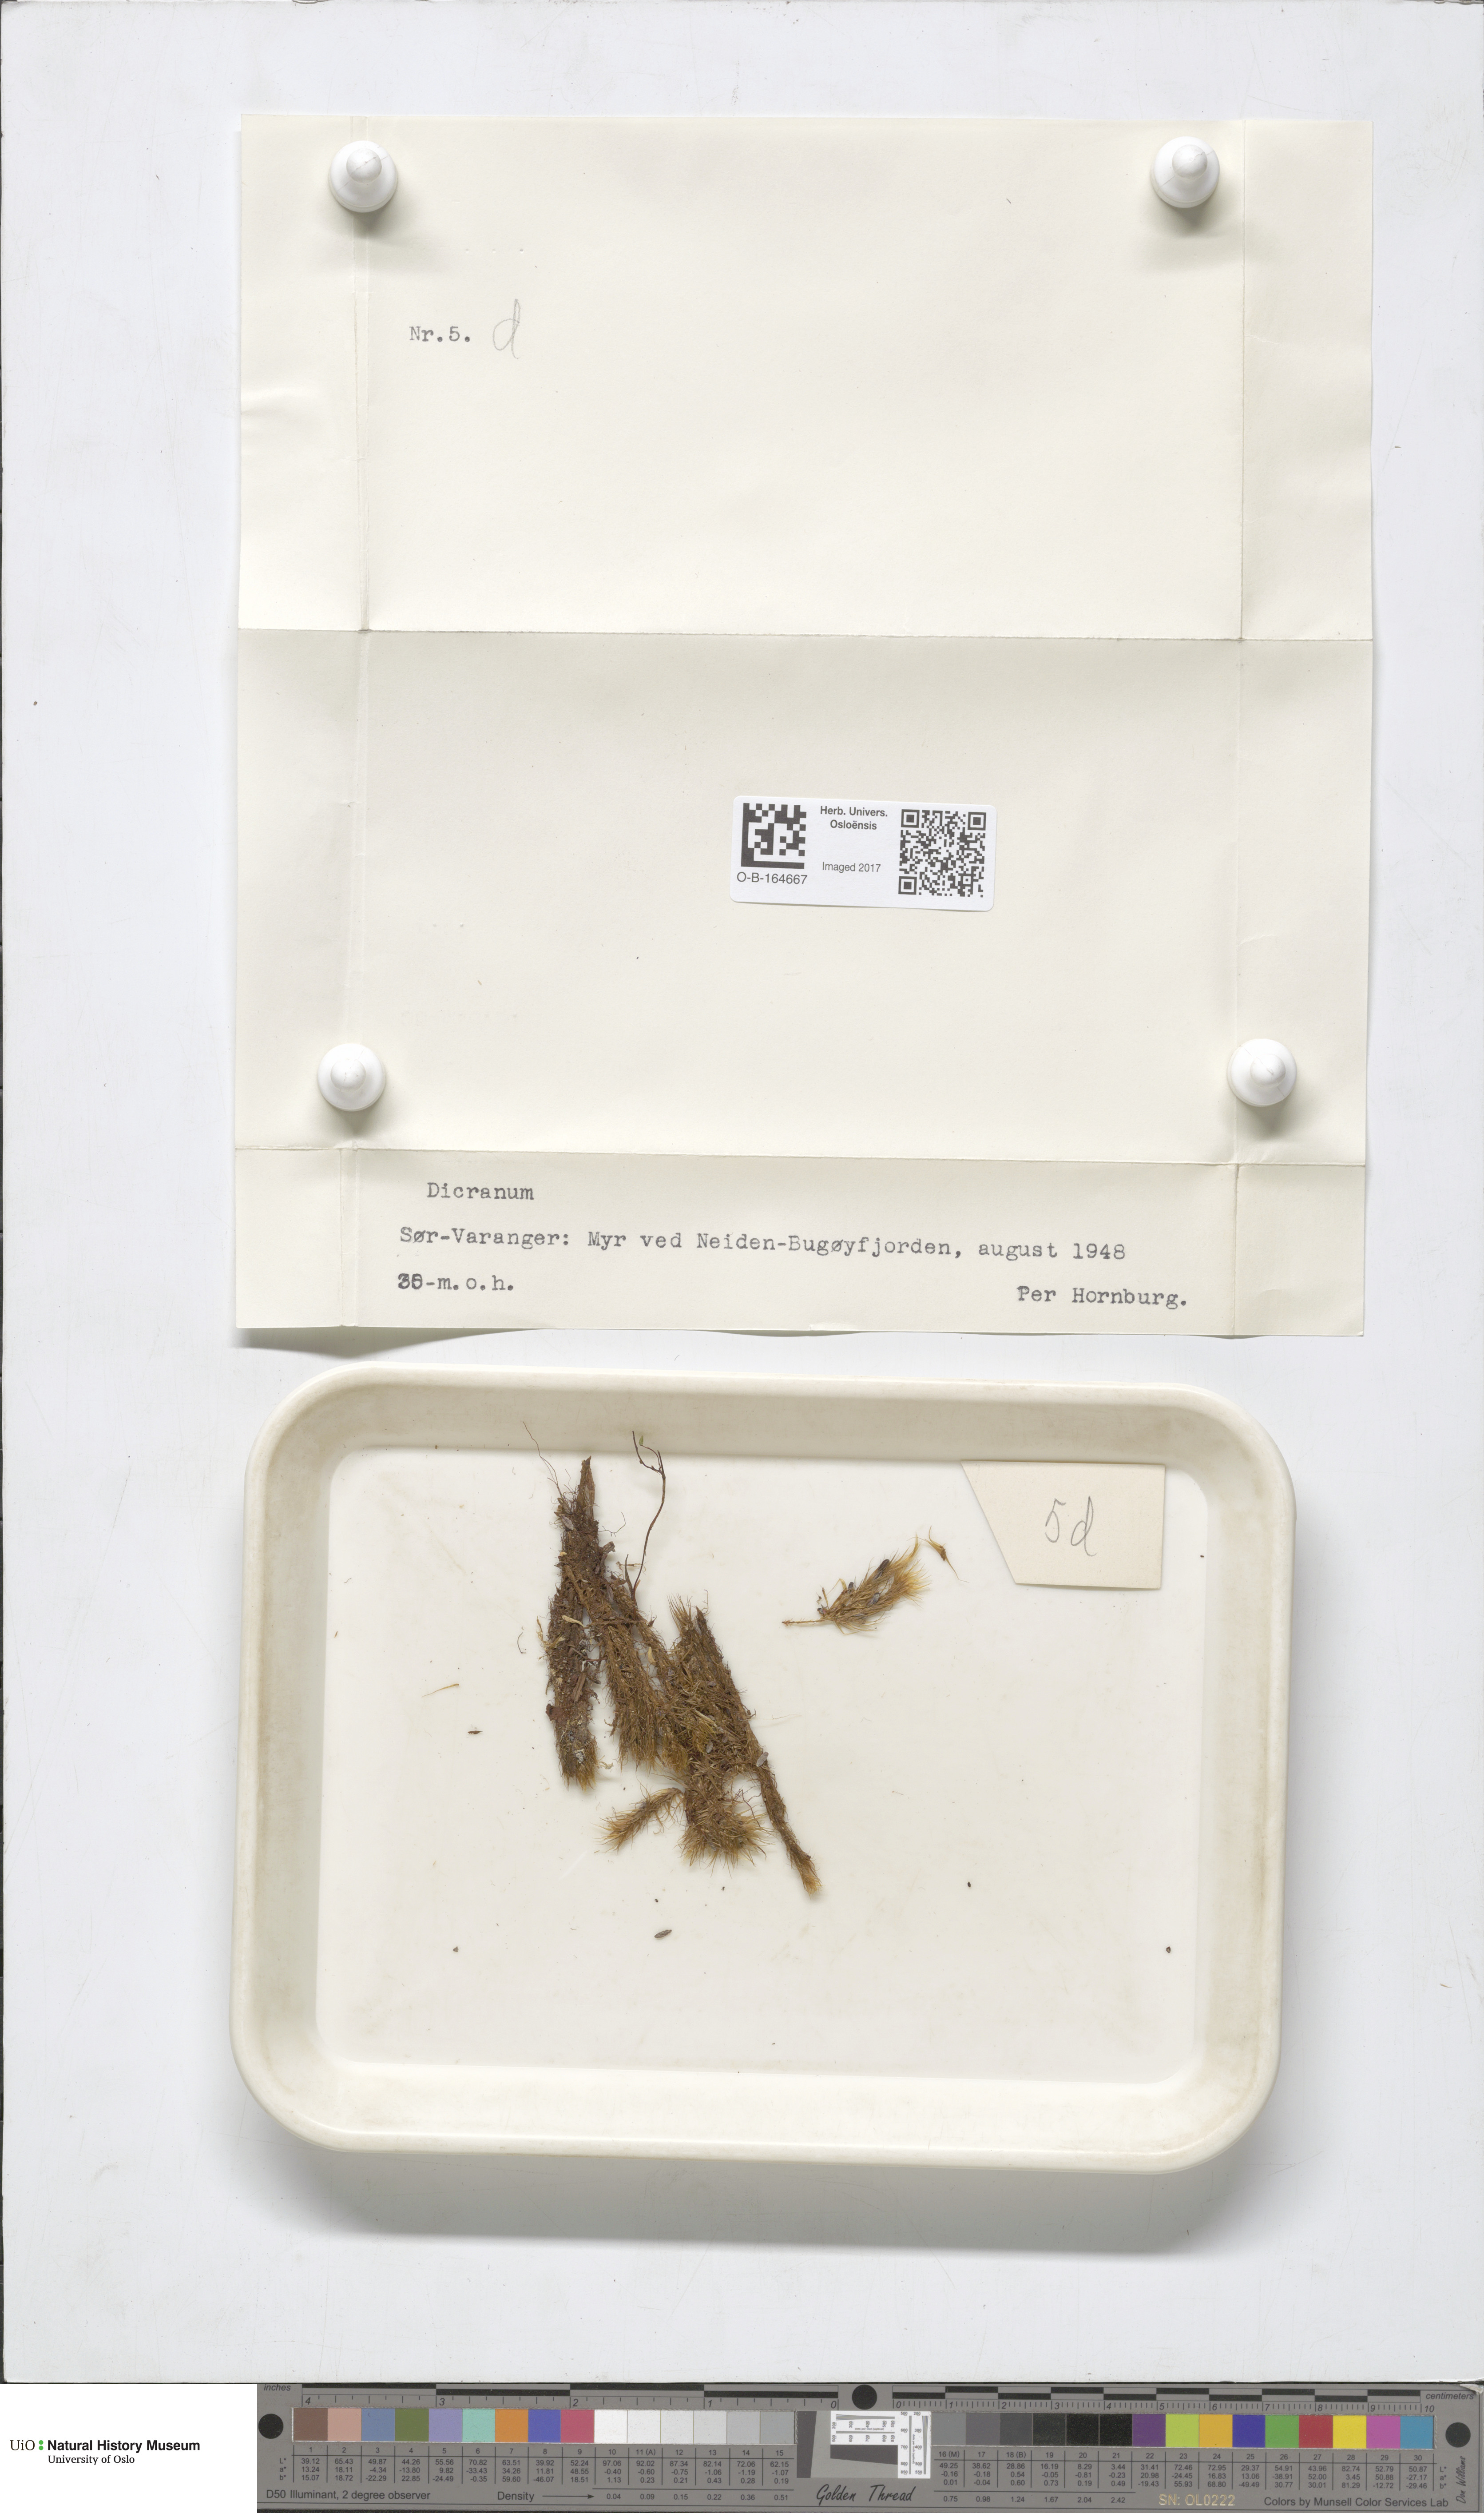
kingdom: Plantae
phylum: Bryophyta
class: Bryopsida
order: Dicranales
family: Dicranaceae
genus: Dicranum
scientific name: Dicranum
